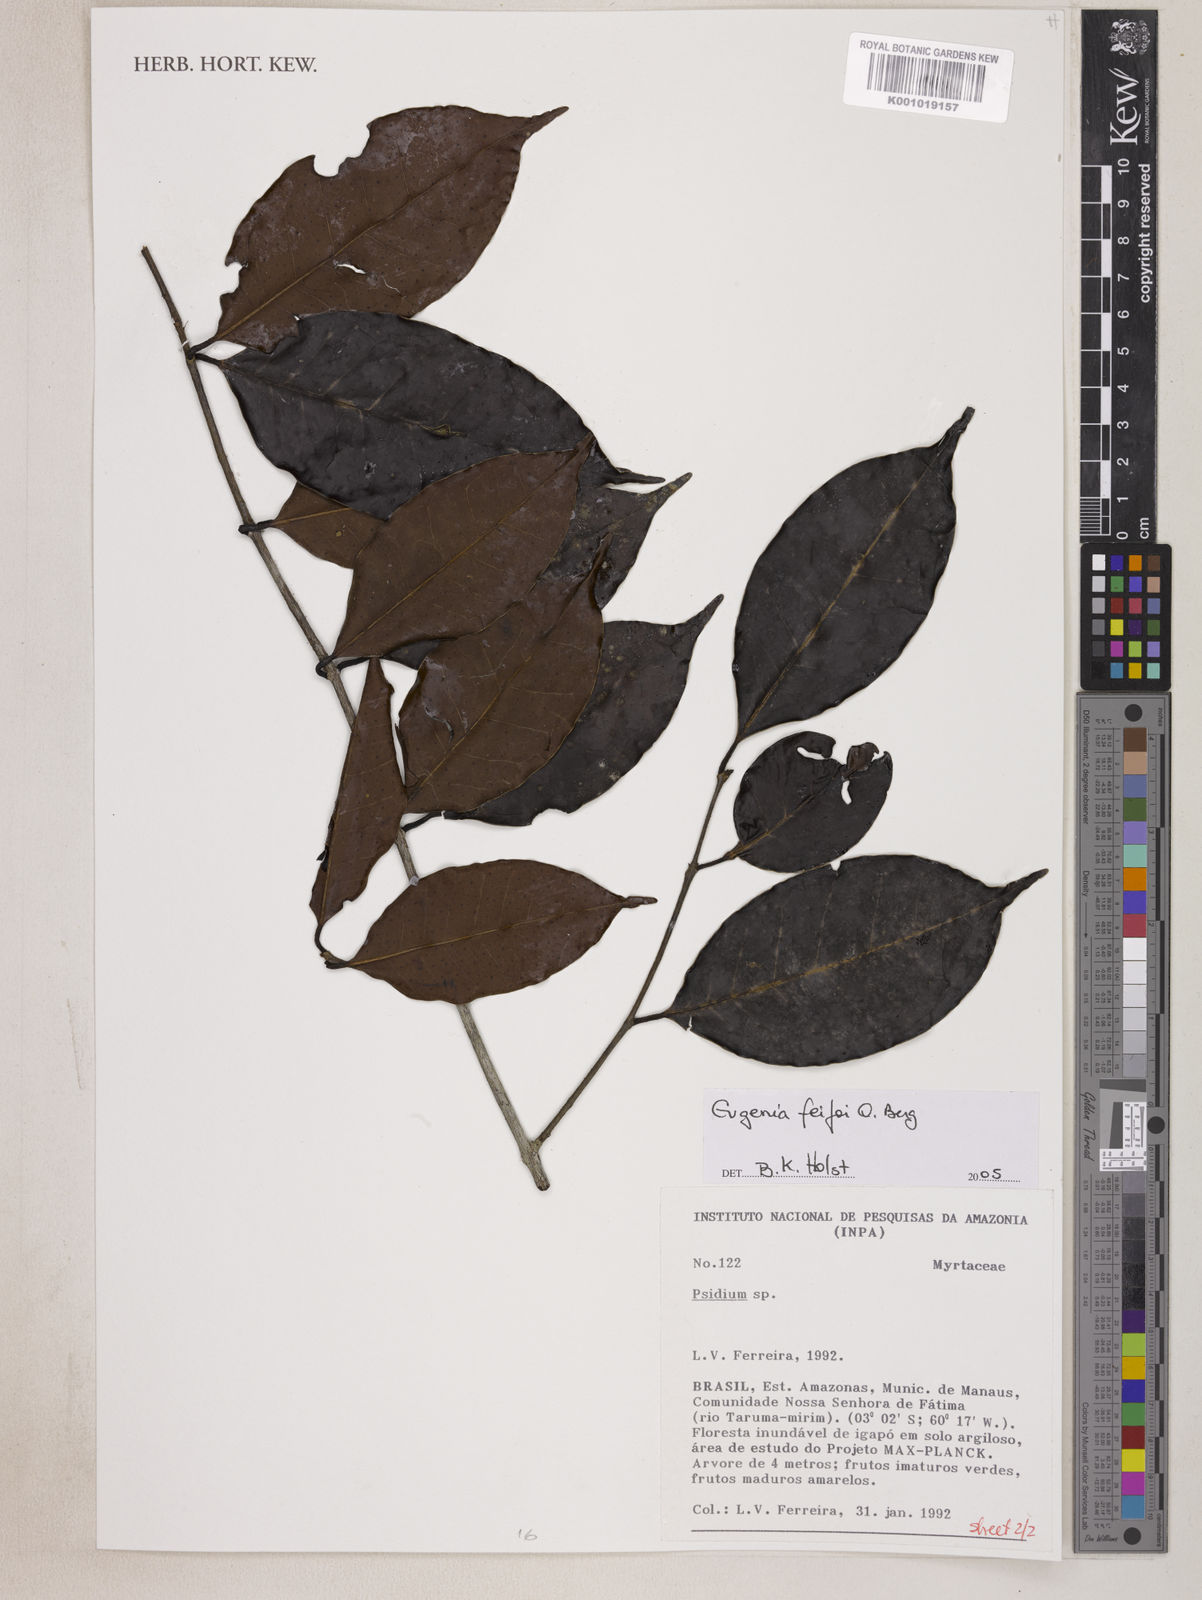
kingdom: Plantae
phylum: Tracheophyta
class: Magnoliopsida
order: Myrtales
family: Myrtaceae
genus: Eugenia
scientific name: Eugenia moschata
